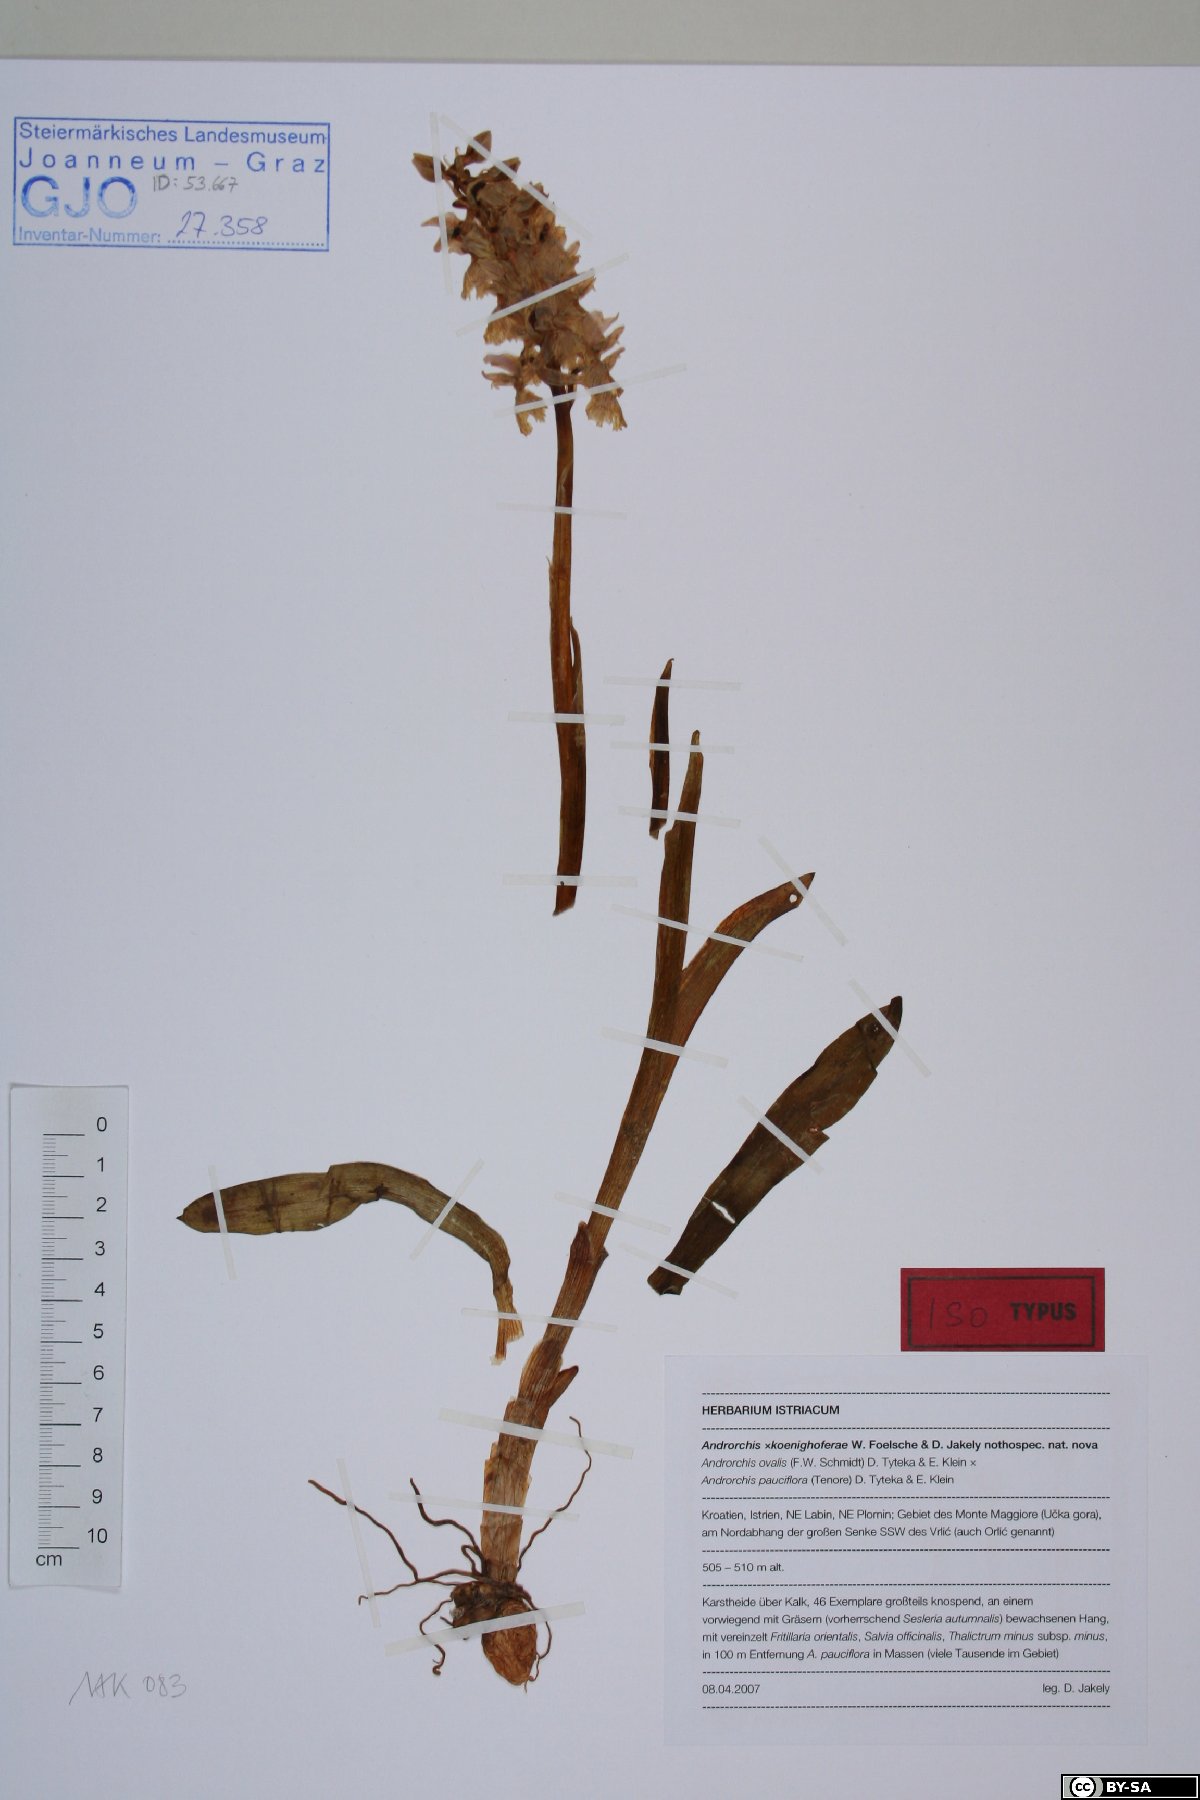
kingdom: Plantae
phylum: Tracheophyta
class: Liliopsida
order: Asparagales
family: Orchidaceae
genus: Orchis
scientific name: Orchis colemanii
